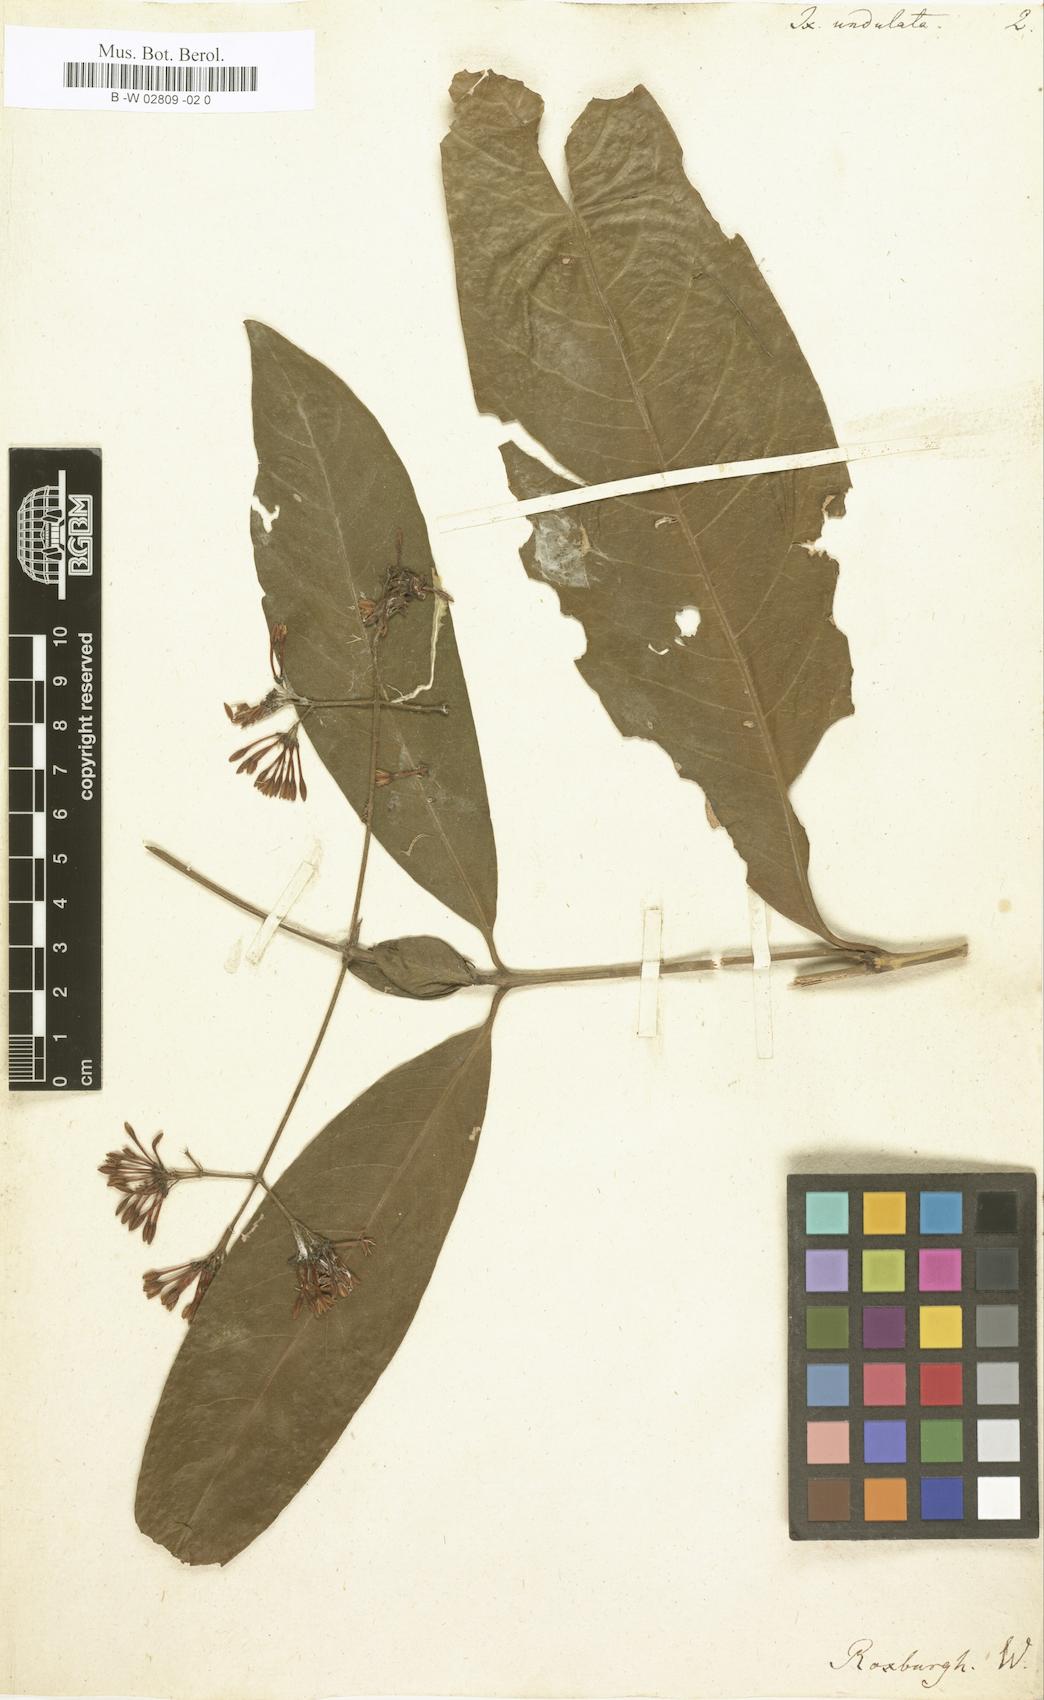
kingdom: Plantae
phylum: Tracheophyta
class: Magnoliopsida
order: Gentianales
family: Rubiaceae
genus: Ixora
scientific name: Ixora undulata
